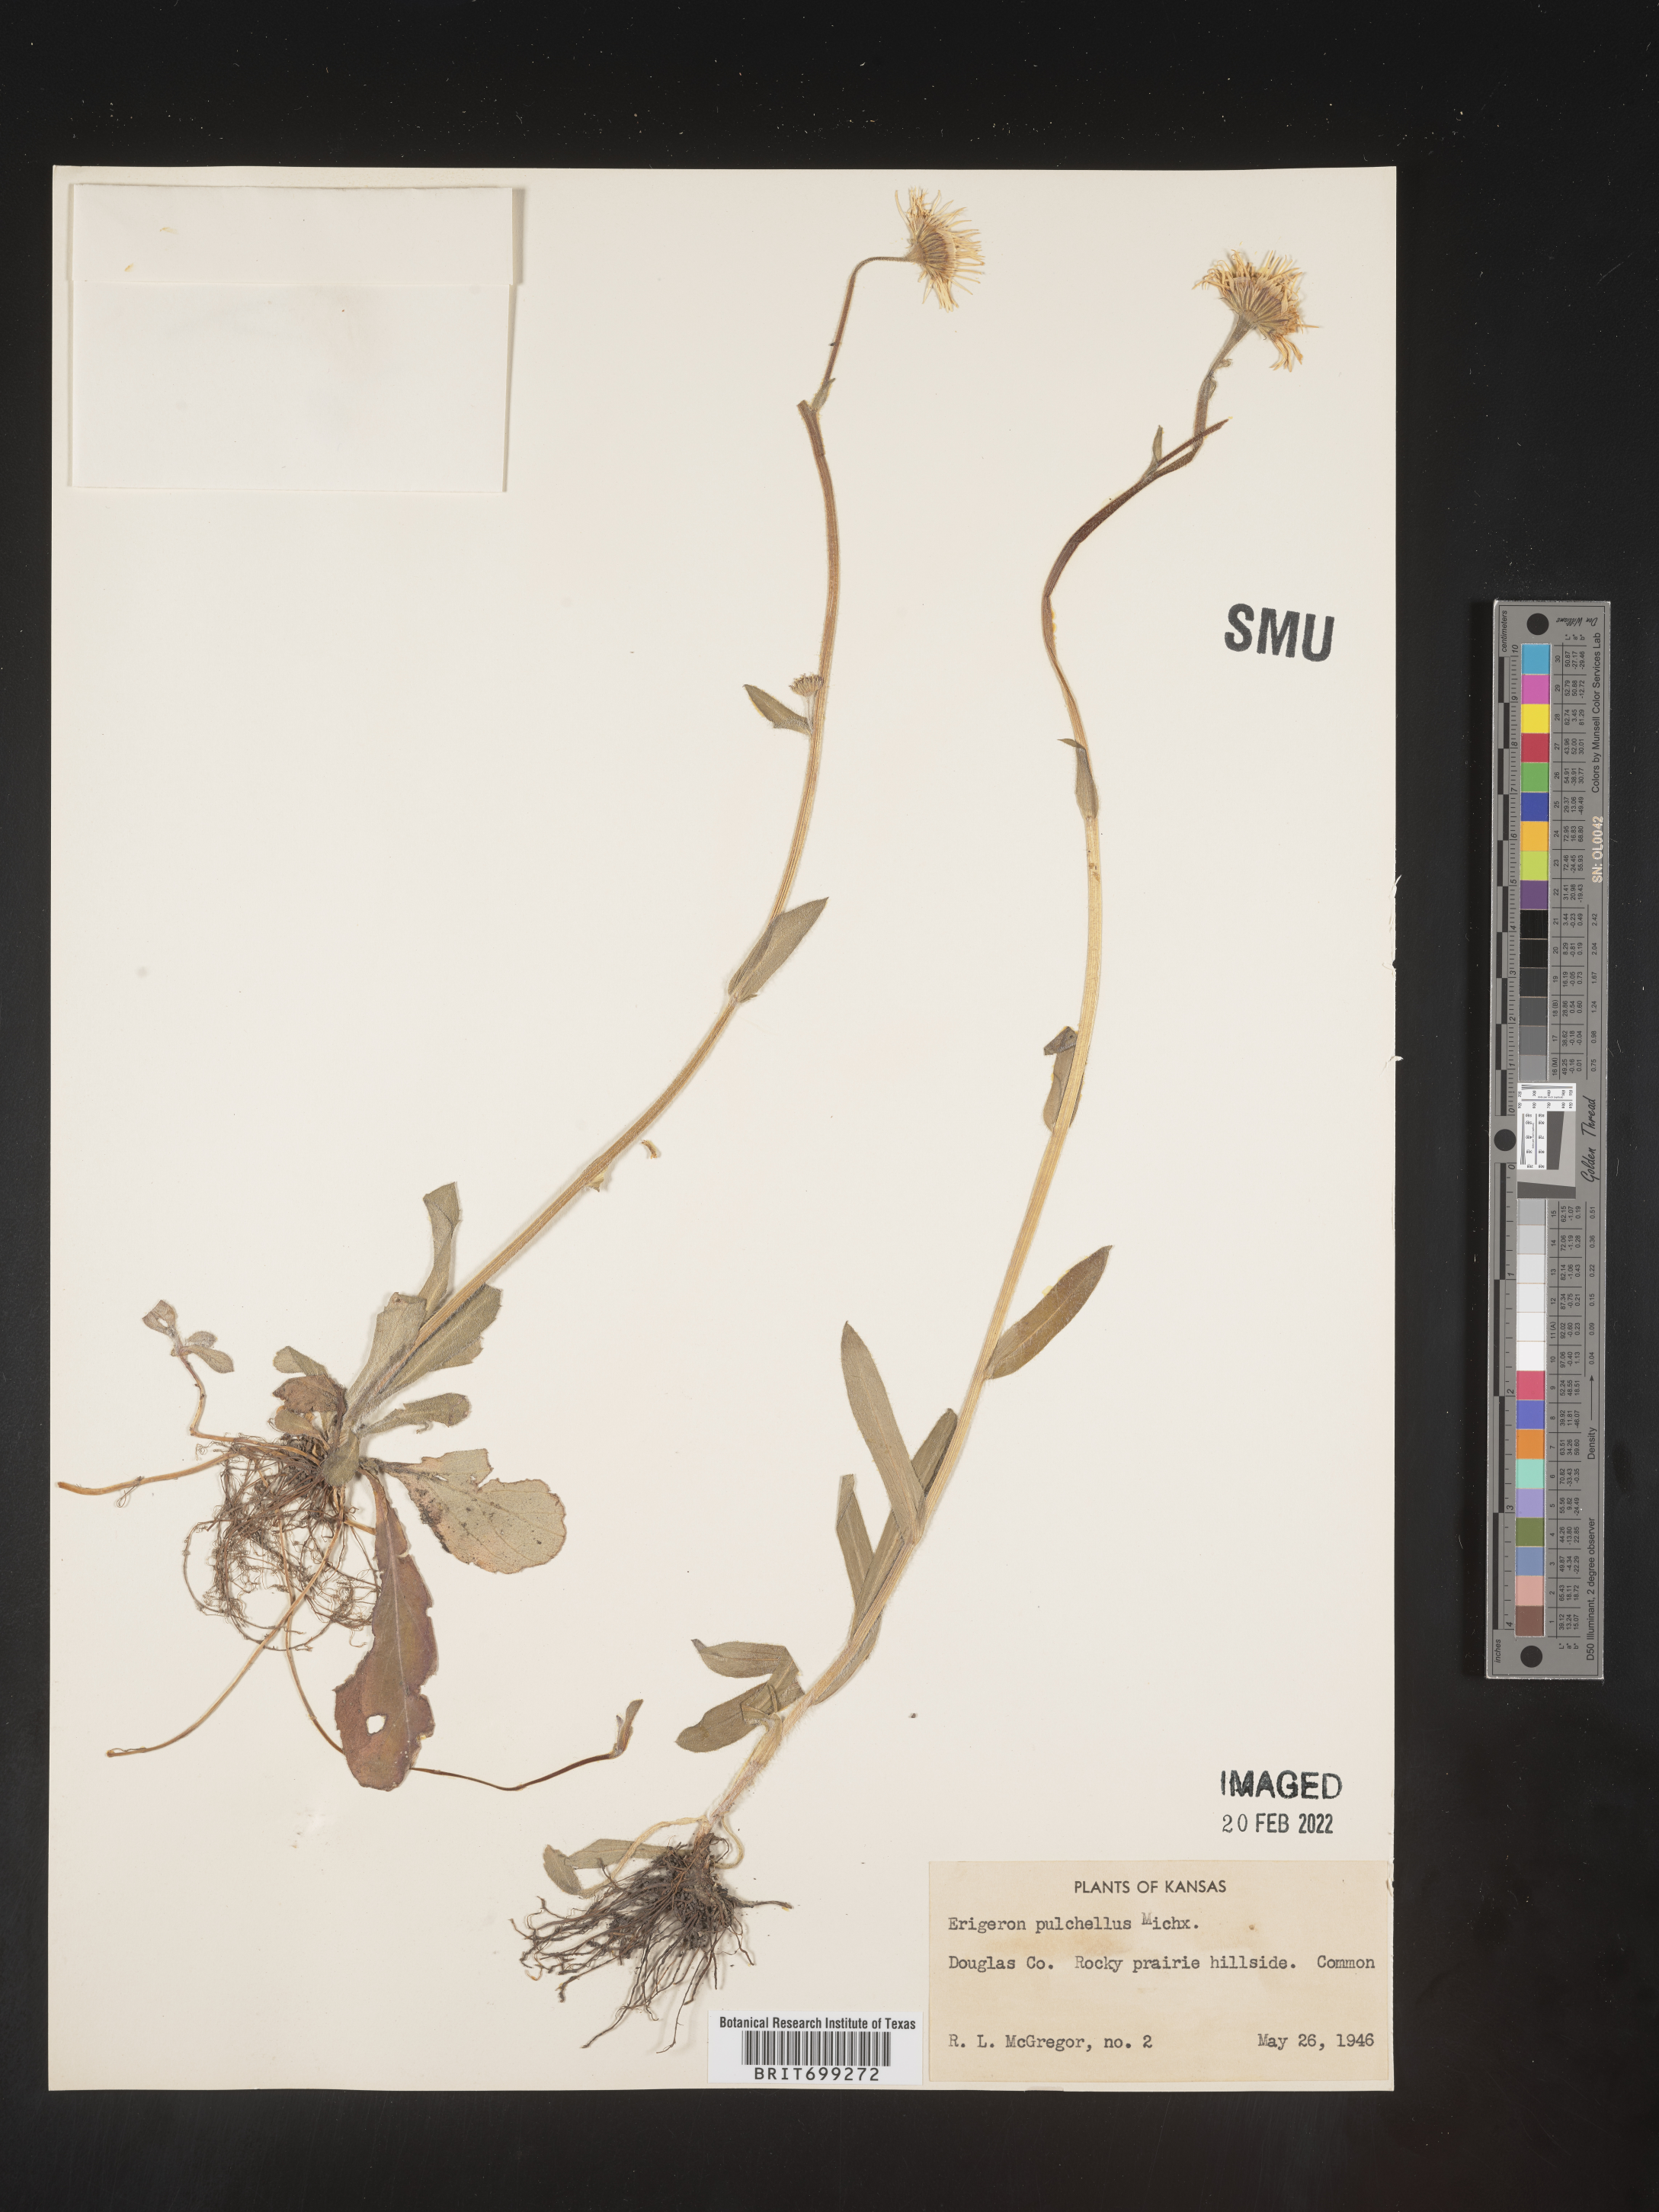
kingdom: Plantae
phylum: Tracheophyta
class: Magnoliopsida
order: Asterales
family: Asteraceae
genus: Erigeron
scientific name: Erigeron pulchellus
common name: Hairy fleabane
